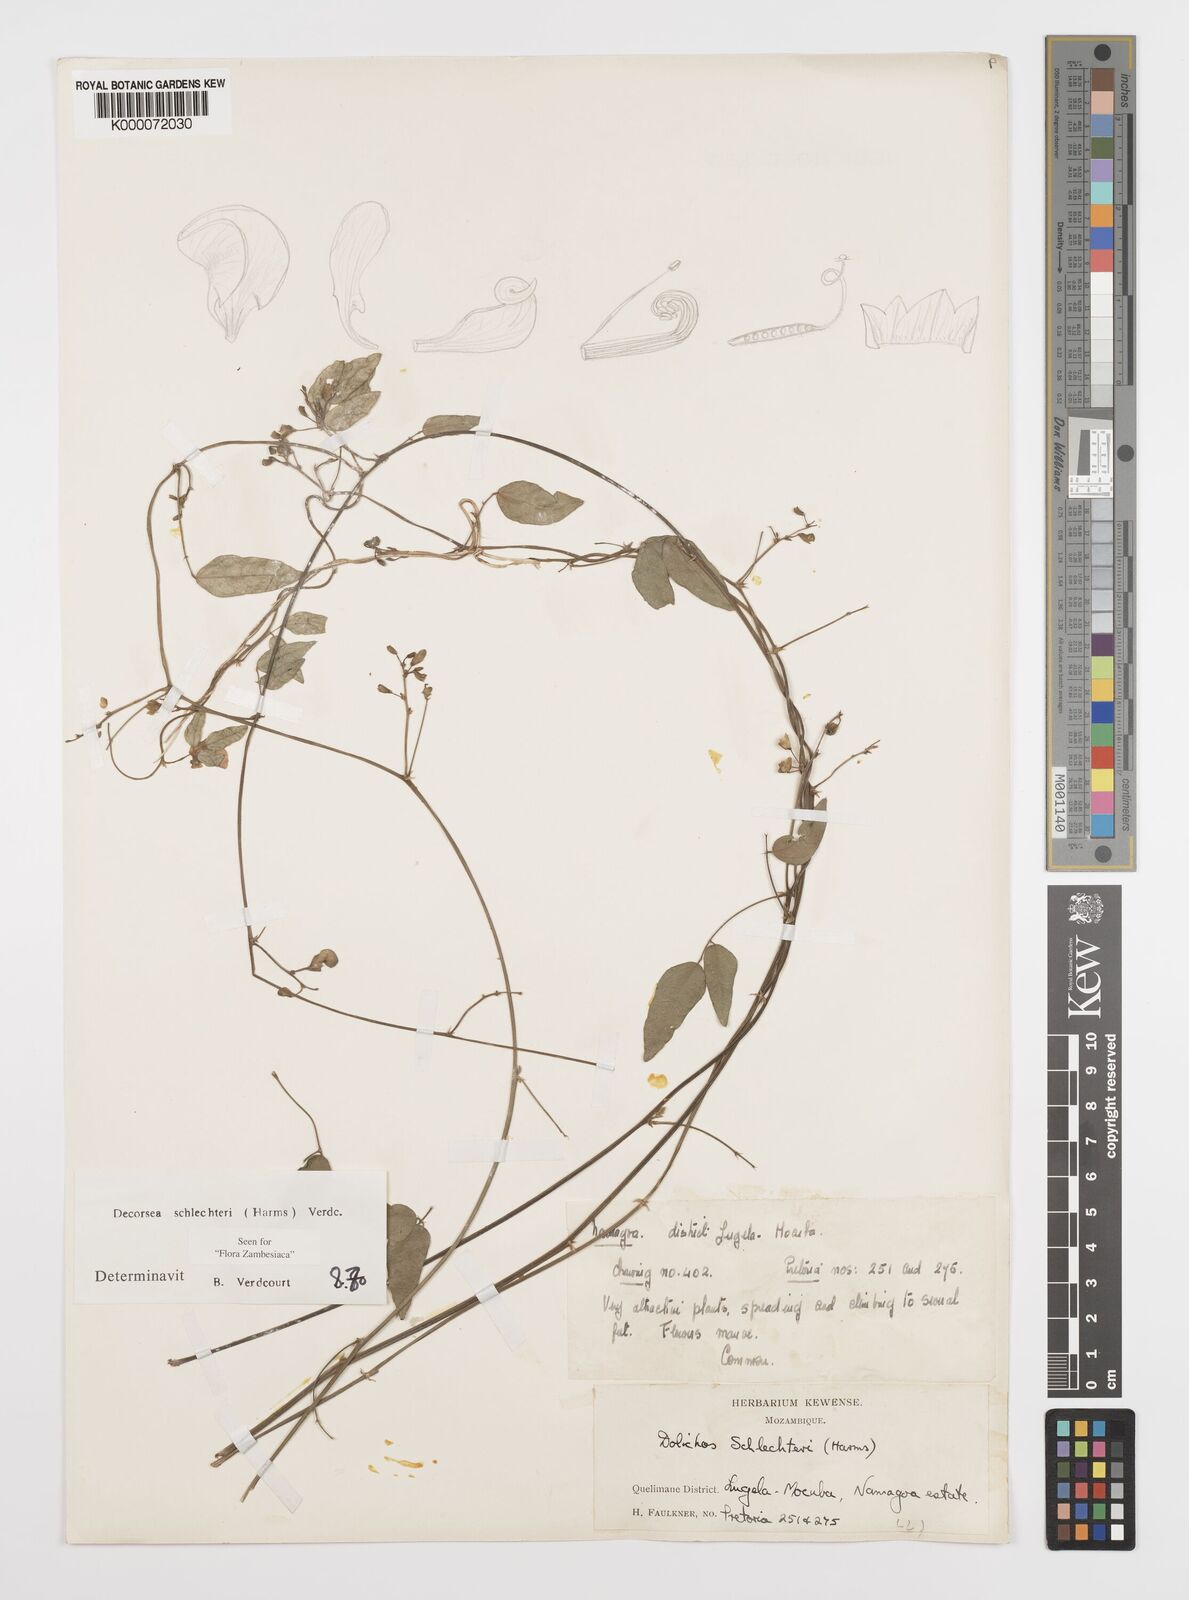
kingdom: Plantae
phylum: Tracheophyta
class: Magnoliopsida
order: Fabales
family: Fabaceae
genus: Decorsea
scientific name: Decorsea schlechteri
